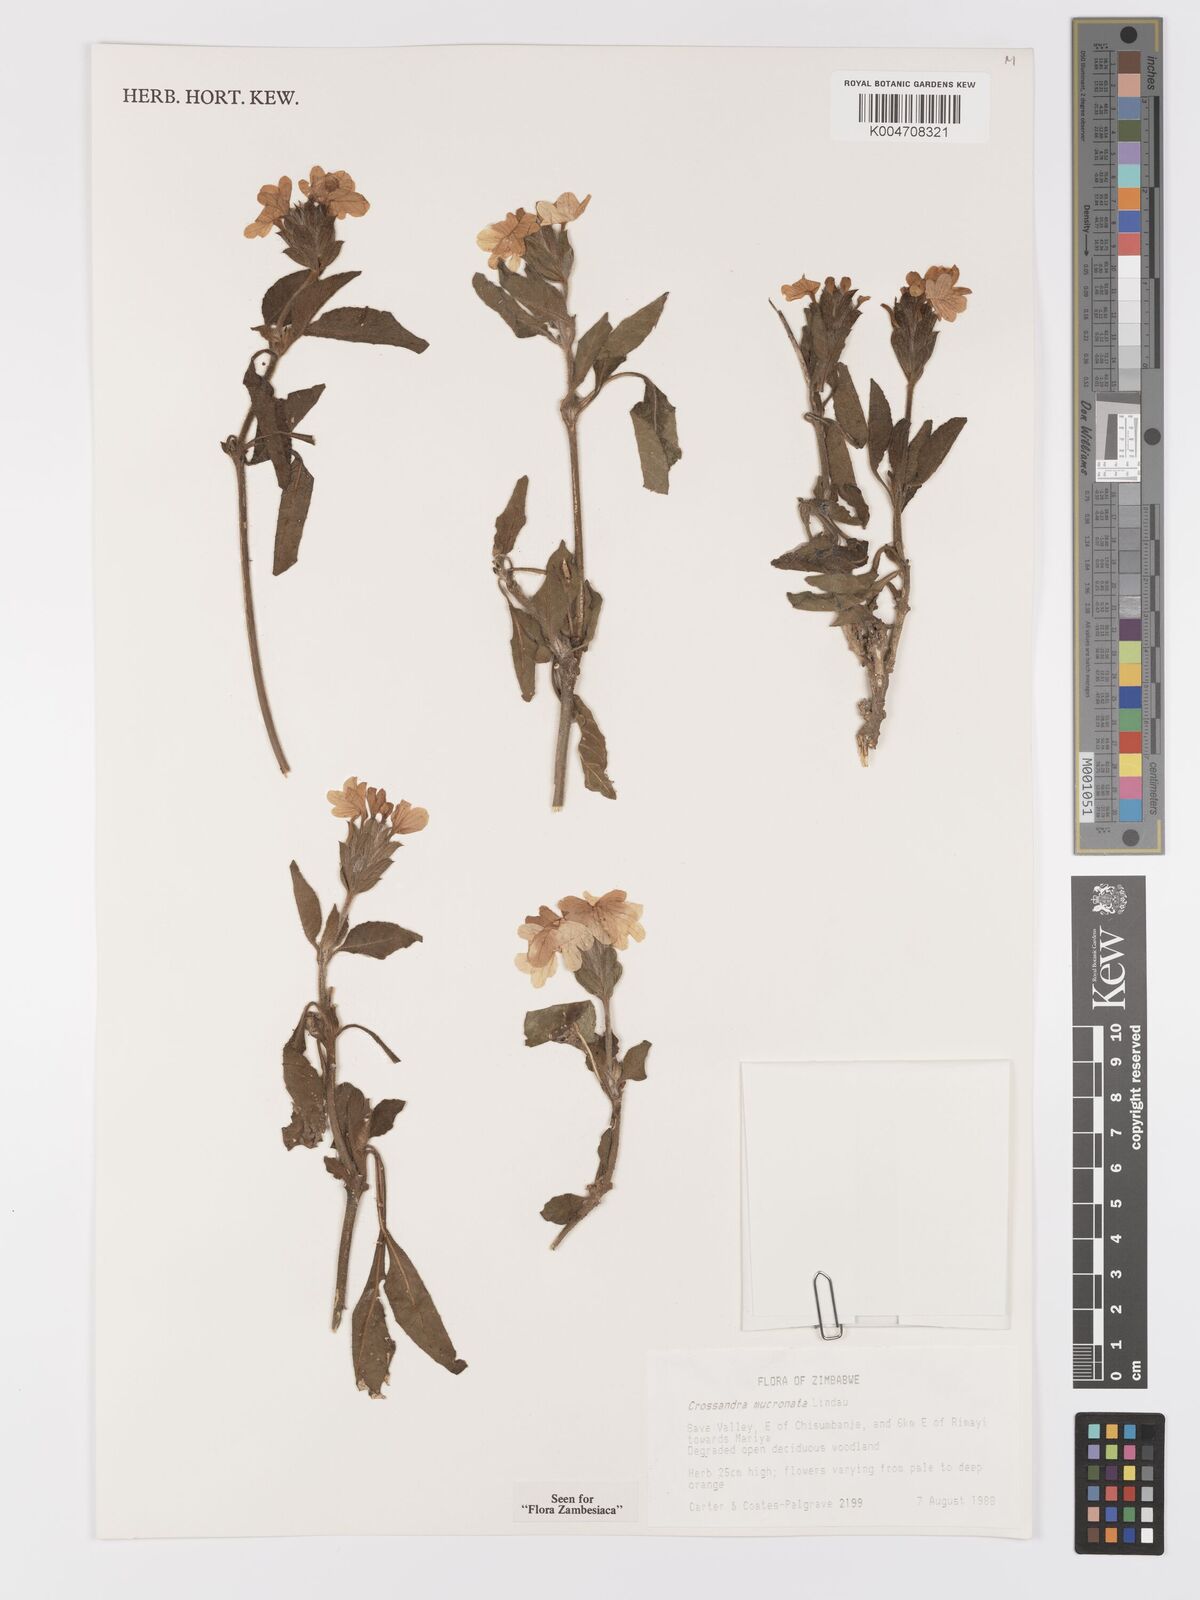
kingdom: Plantae
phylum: Tracheophyta
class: Magnoliopsida
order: Lamiales
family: Acanthaceae
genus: Crossandra
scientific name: Crossandra mucronata
